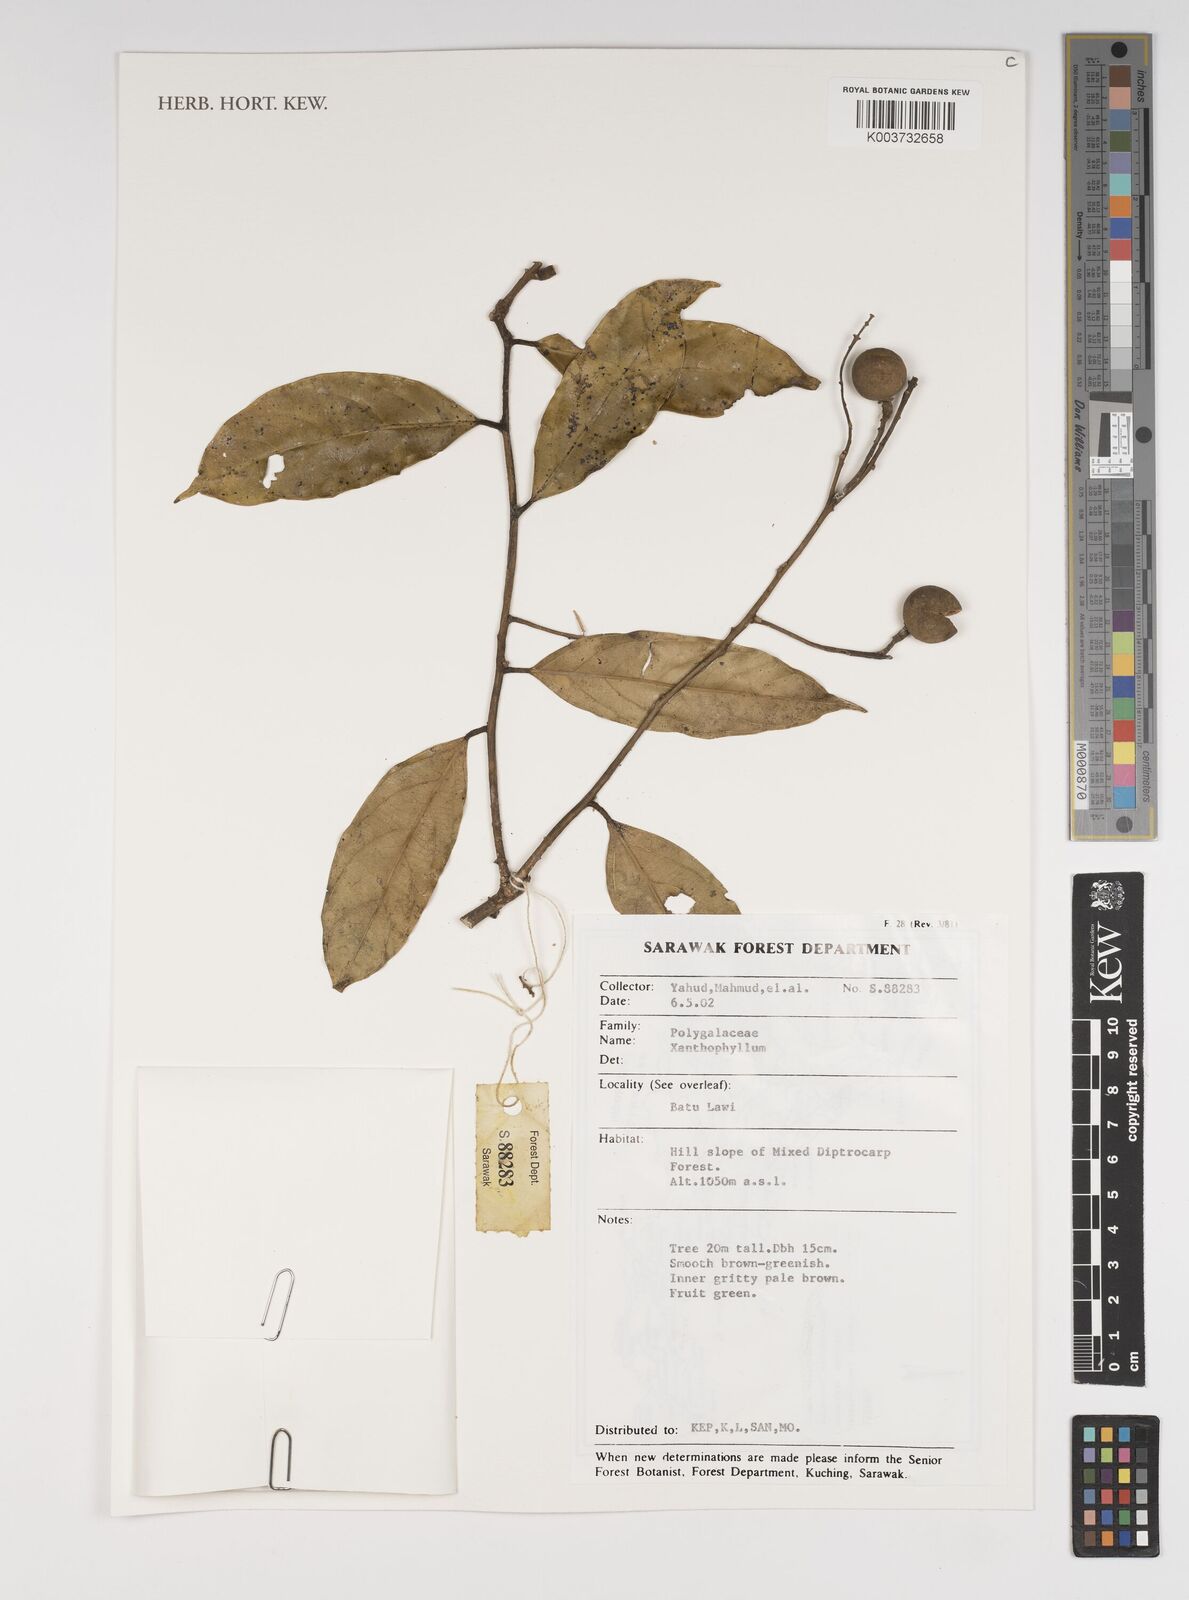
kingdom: Plantae
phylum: Tracheophyta
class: Magnoliopsida
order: Fabales
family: Polygalaceae
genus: Xanthophyllum
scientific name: Xanthophyllum
